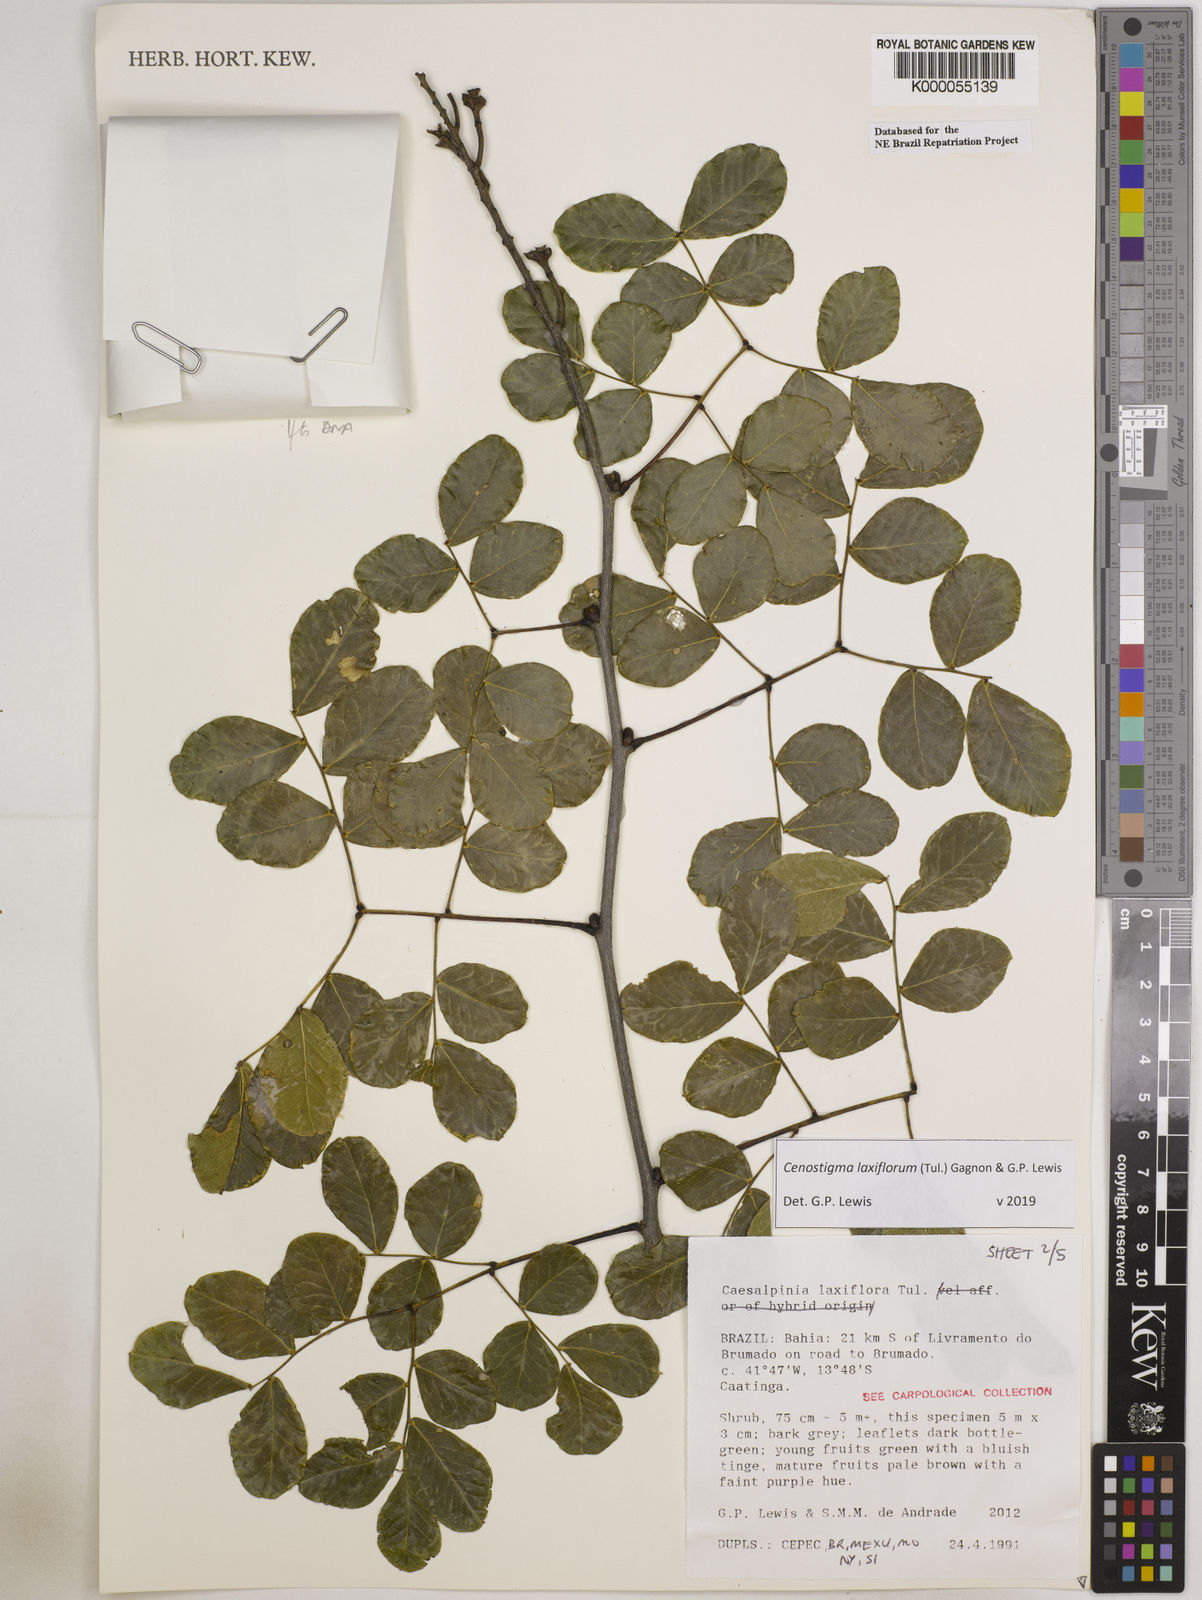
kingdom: Plantae
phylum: Tracheophyta
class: Magnoliopsida
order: Fabales
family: Fabaceae
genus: Cenostigma
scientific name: Cenostigma laxiflorum
